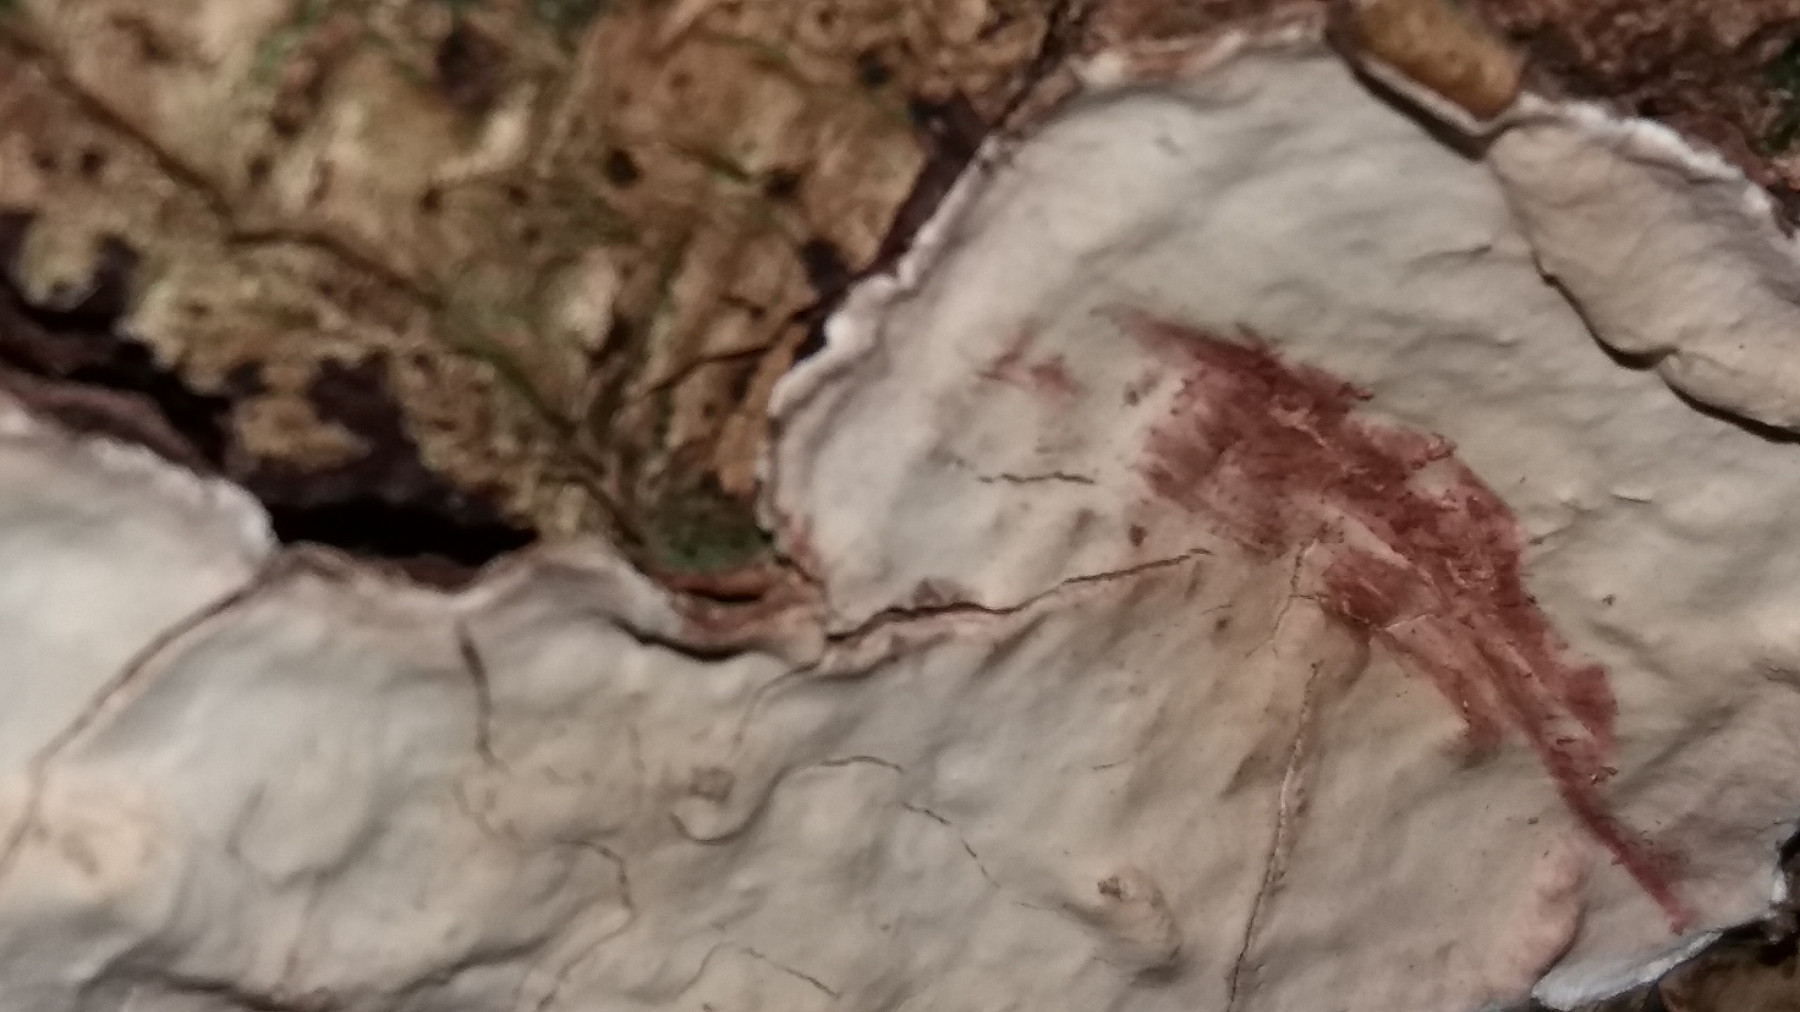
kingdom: Fungi
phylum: Basidiomycota
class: Agaricomycetes
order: Russulales
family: Stereaceae
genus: Stereum
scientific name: Stereum rugosum
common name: rynket lædersvamp
